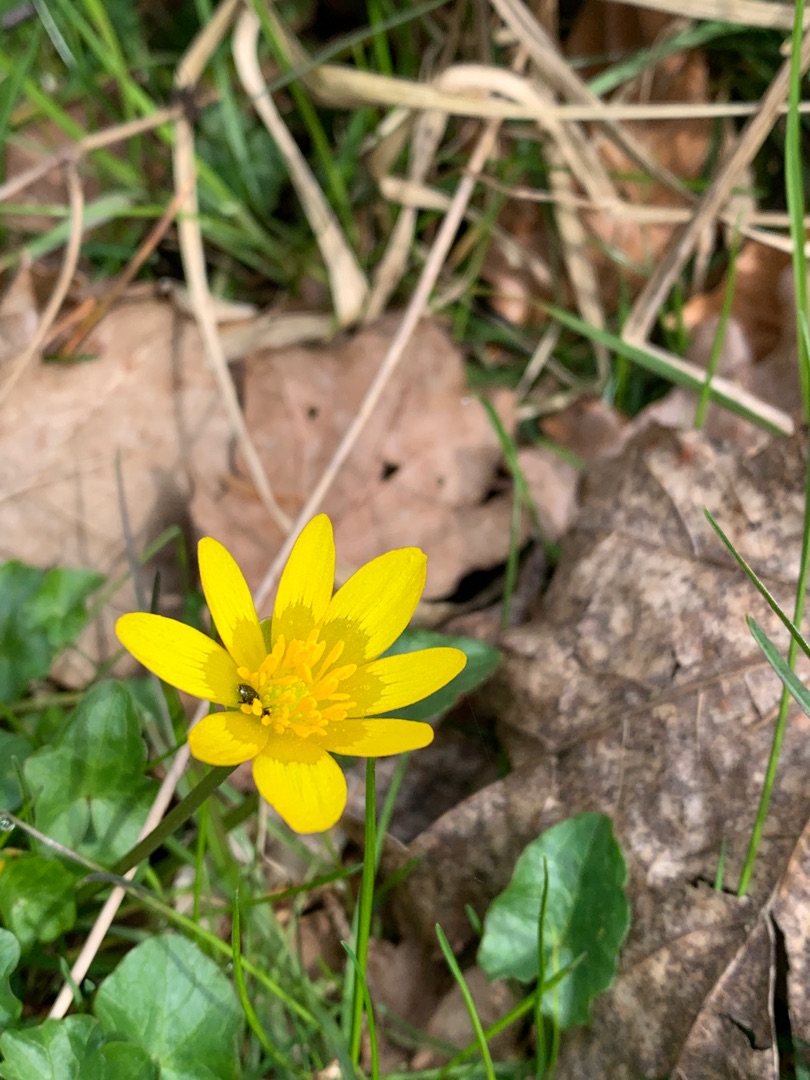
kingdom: Plantae
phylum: Tracheophyta
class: Magnoliopsida
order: Ranunculales
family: Ranunculaceae
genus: Ficaria
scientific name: Ficaria verna
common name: Vorterod
